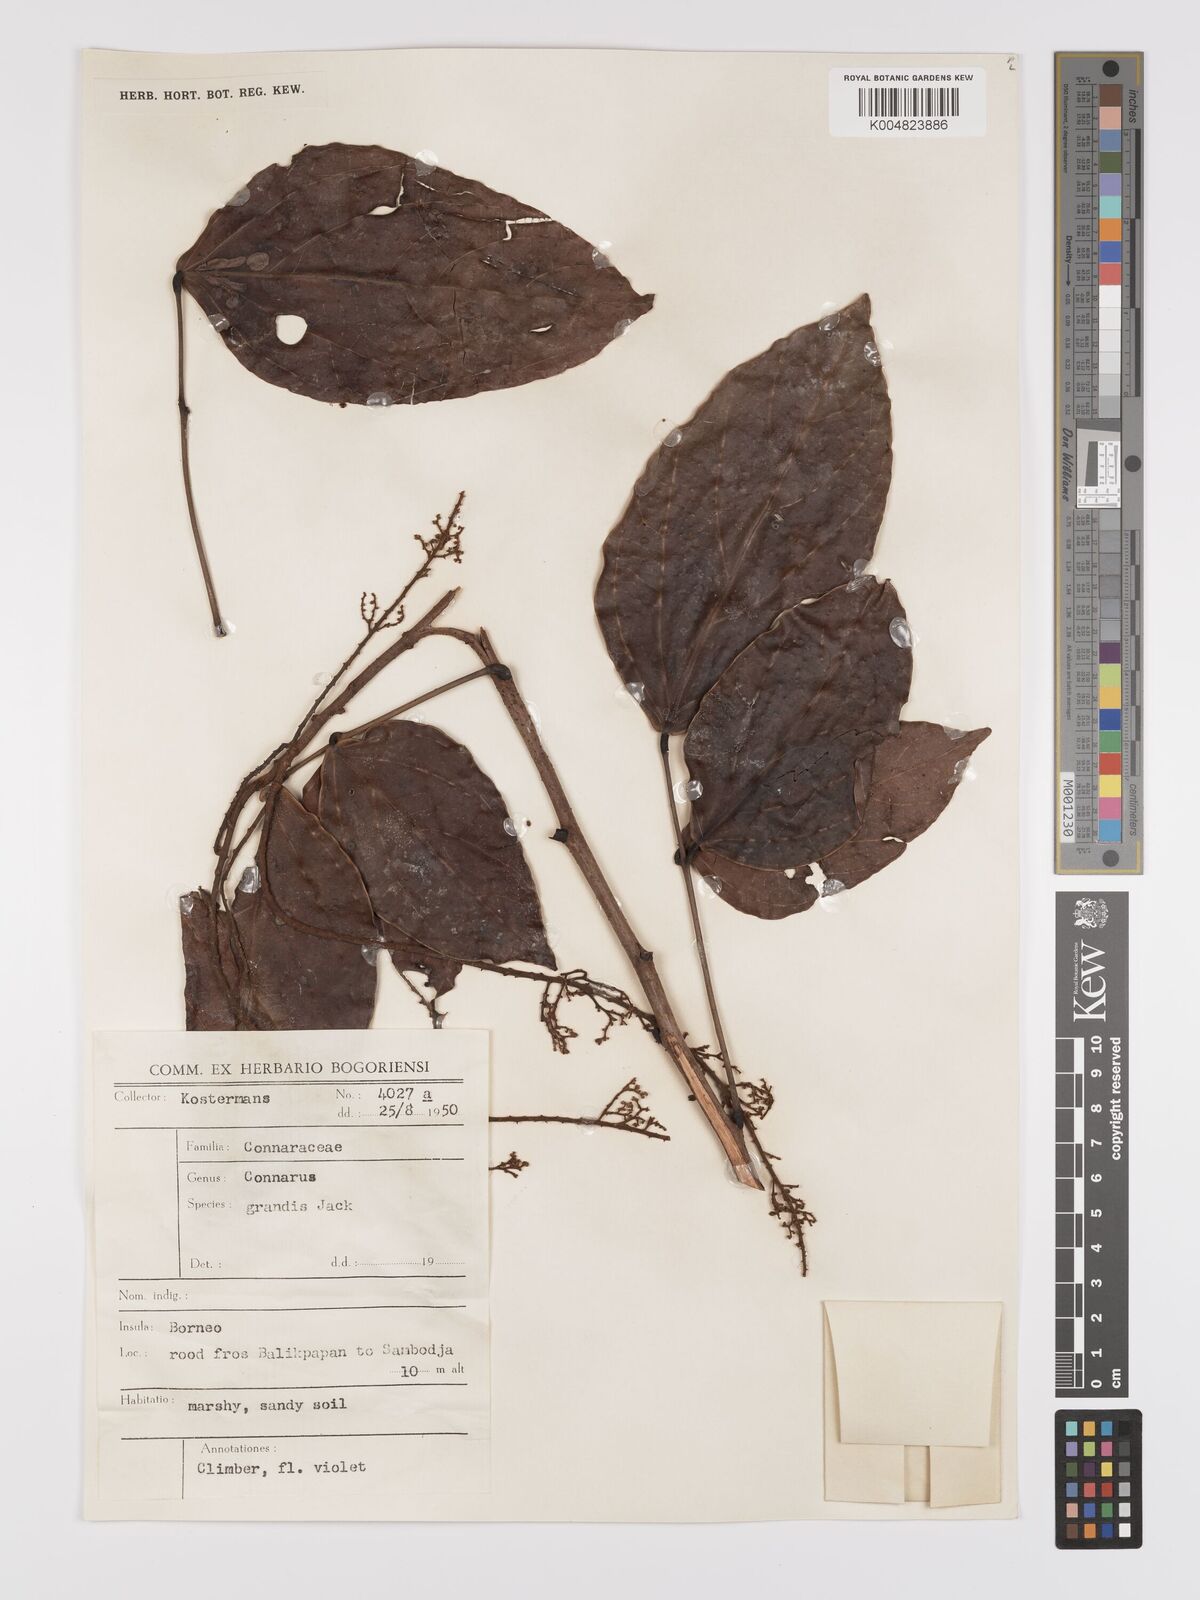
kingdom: Plantae
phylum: Tracheophyta
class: Magnoliopsida
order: Oxalidales
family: Connaraceae
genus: Connarus
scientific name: Connarus grandis
